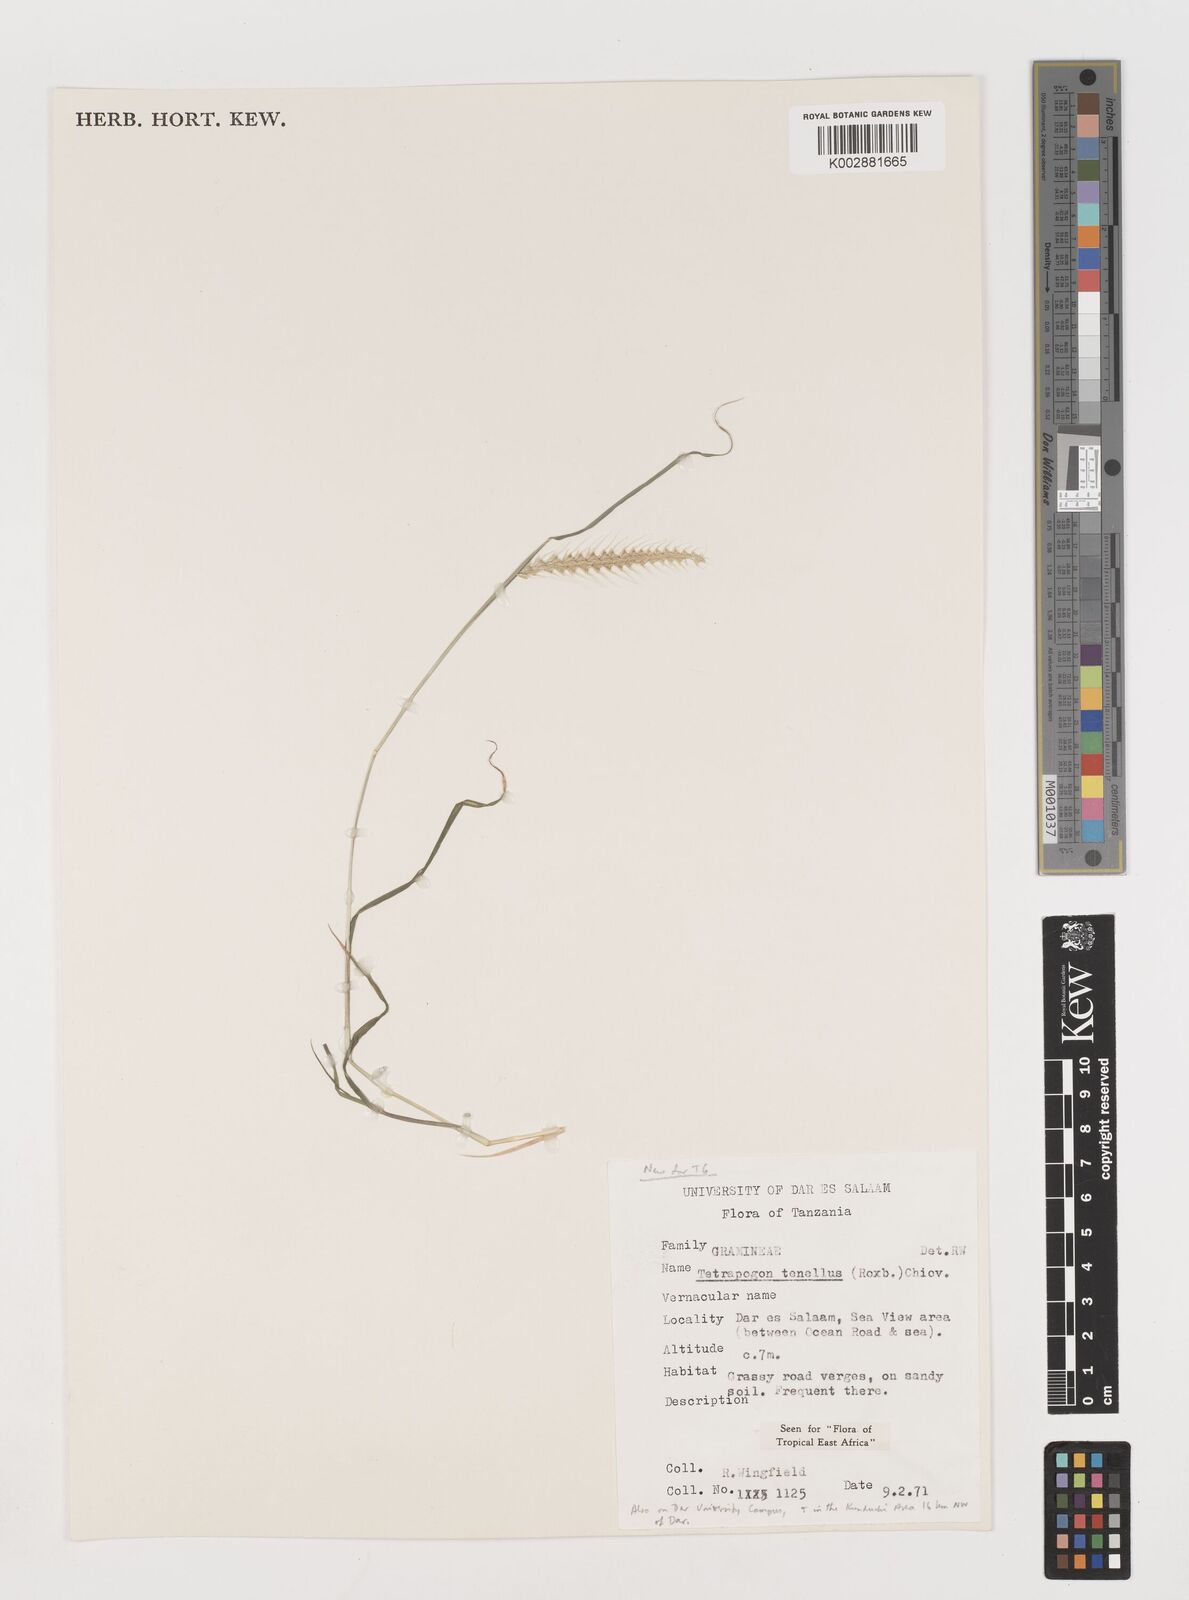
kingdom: Plantae
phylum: Tracheophyta
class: Liliopsida
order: Poales
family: Poaceae
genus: Tetrapogon
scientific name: Tetrapogon tenellus
